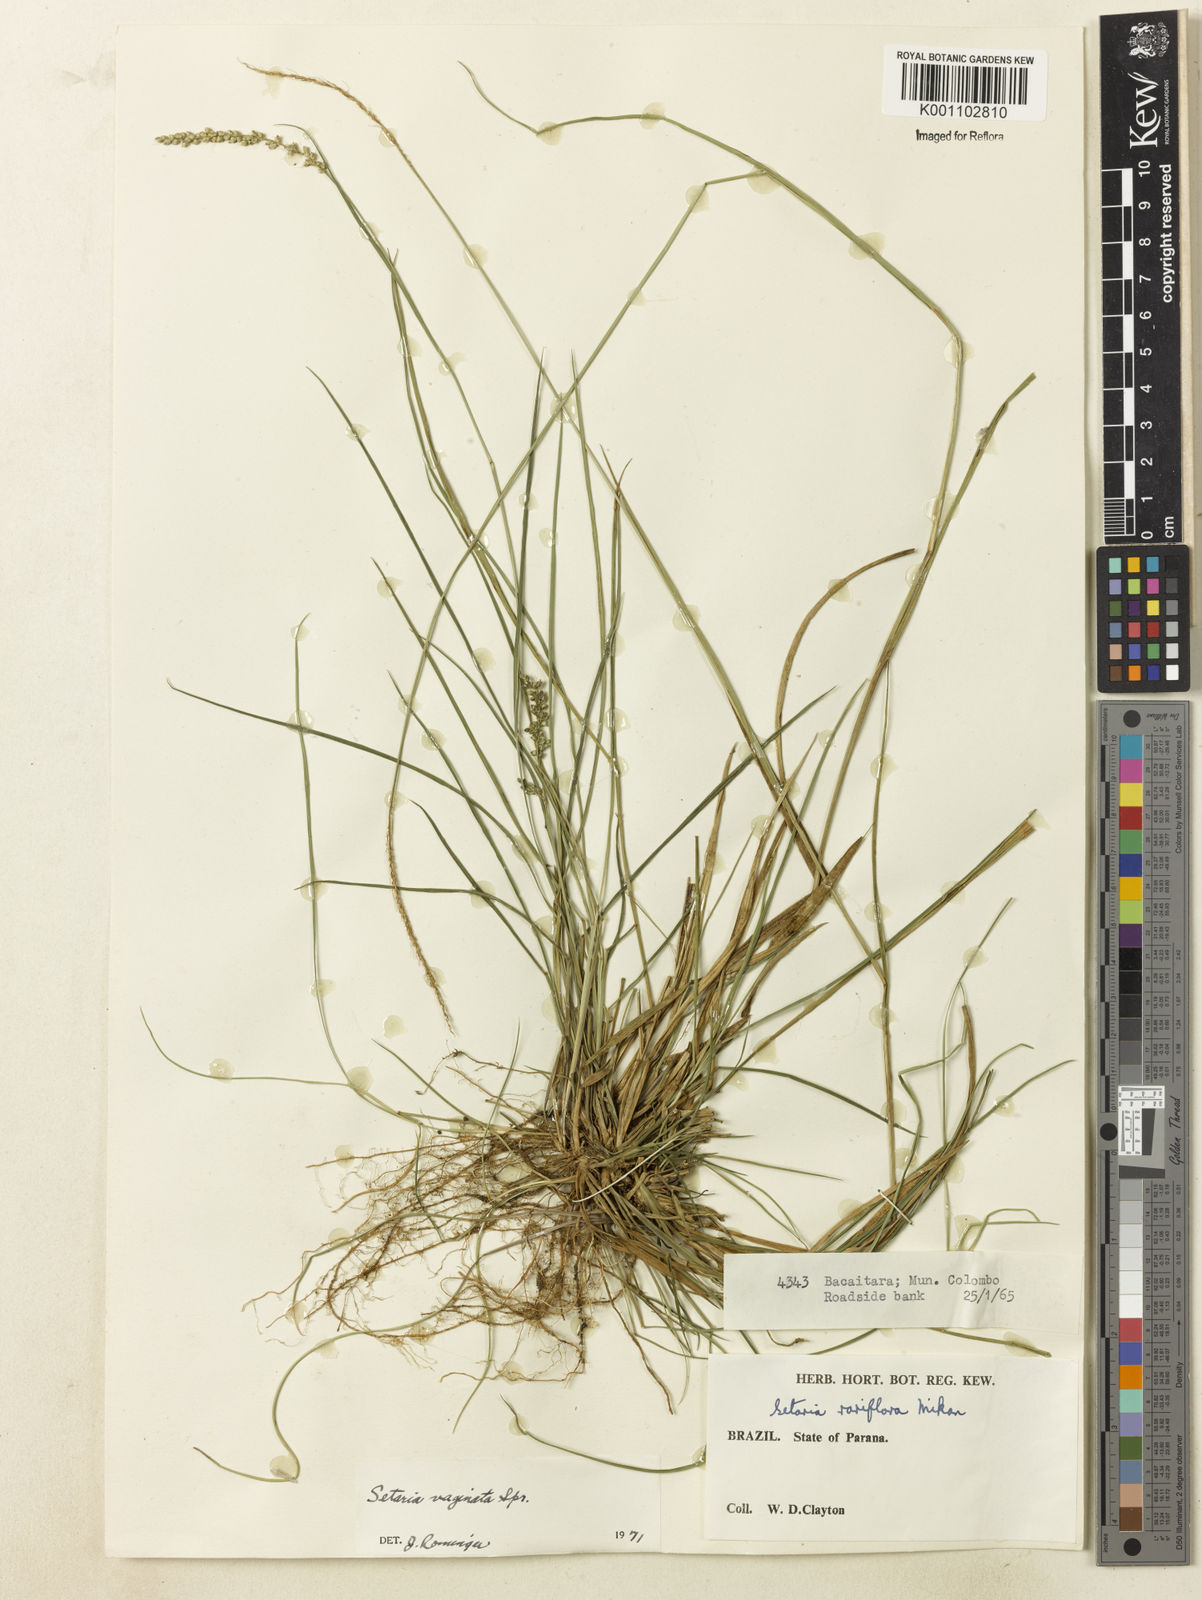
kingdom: Plantae
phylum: Tracheophyta
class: Liliopsida
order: Poales
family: Poaceae
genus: Setaria
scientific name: Setaria setosa
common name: West indies bristle grass
